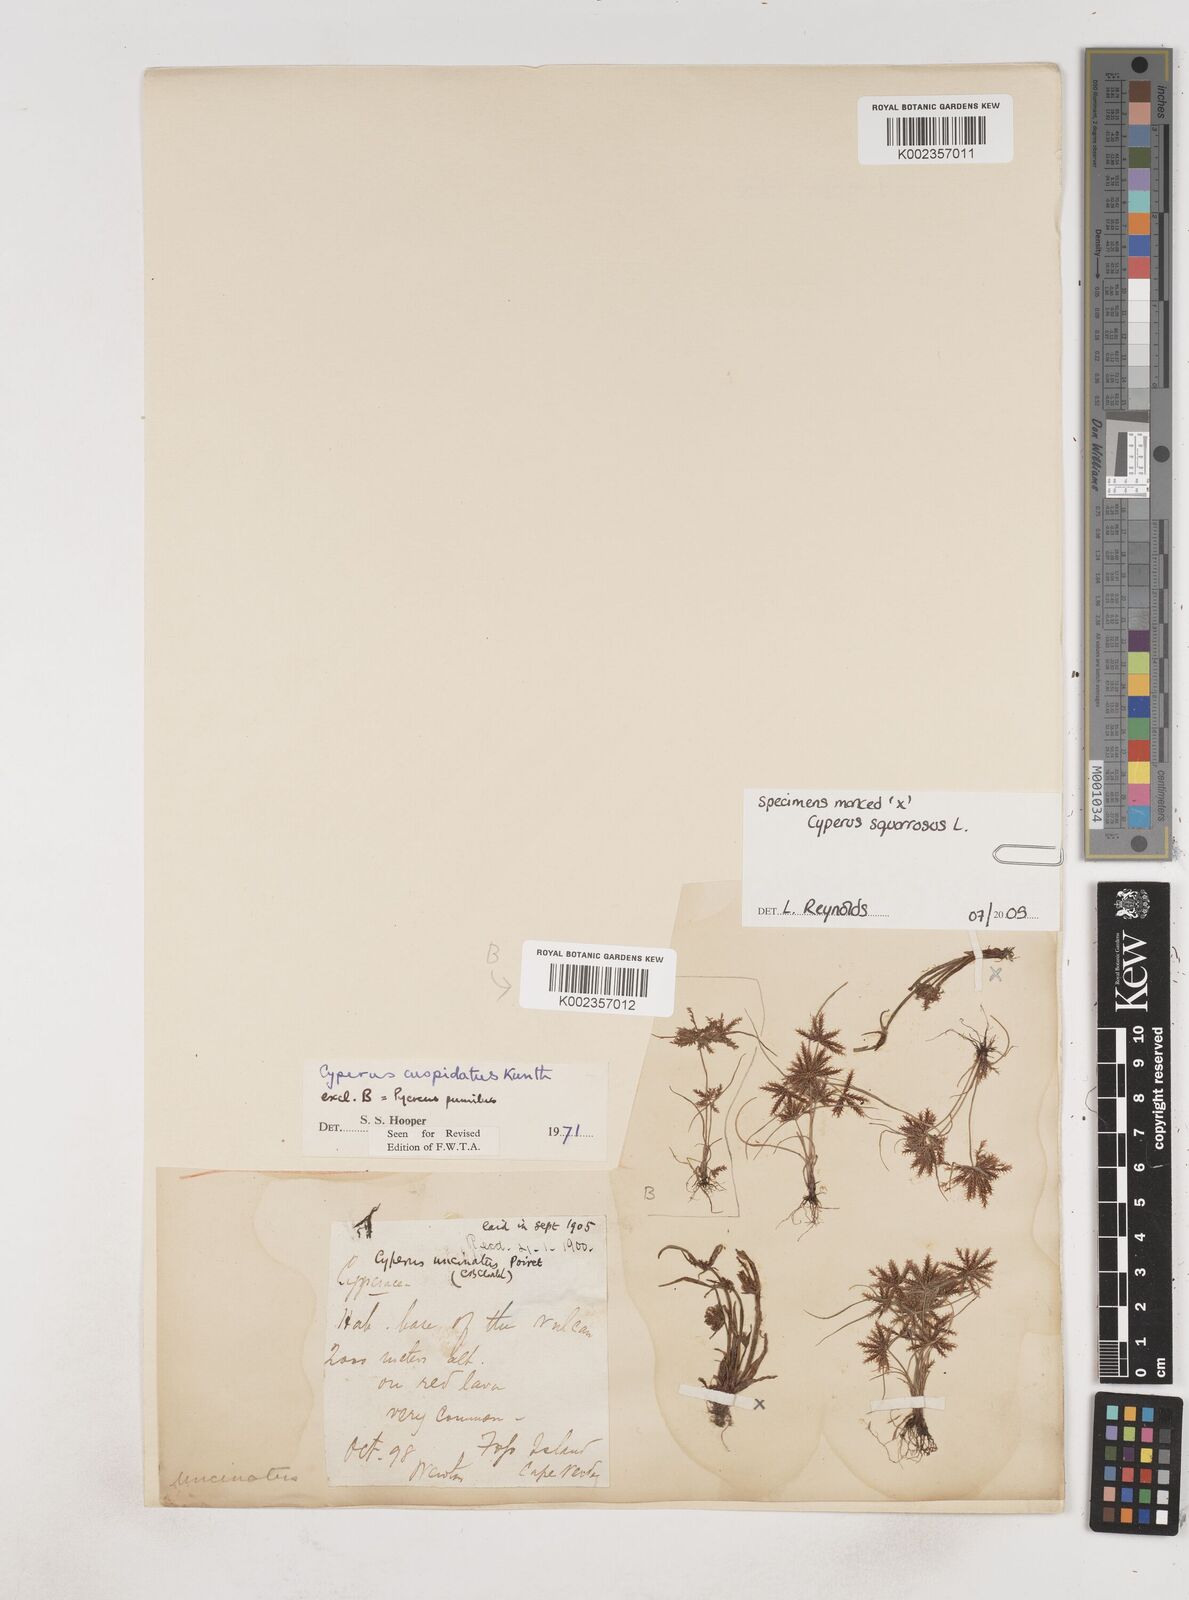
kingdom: Plantae
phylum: Tracheophyta
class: Liliopsida
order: Poales
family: Cyperaceae
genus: Cyperus
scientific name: Cyperus
